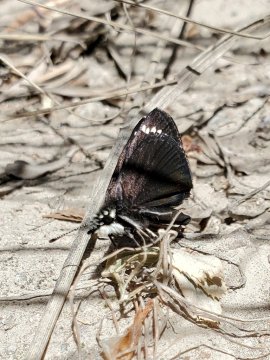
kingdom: Animalia
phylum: Arthropoda
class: Insecta
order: Lepidoptera
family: Hesperiidae
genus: Pholisora
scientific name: Pholisora catullus
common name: Common Sootywing
